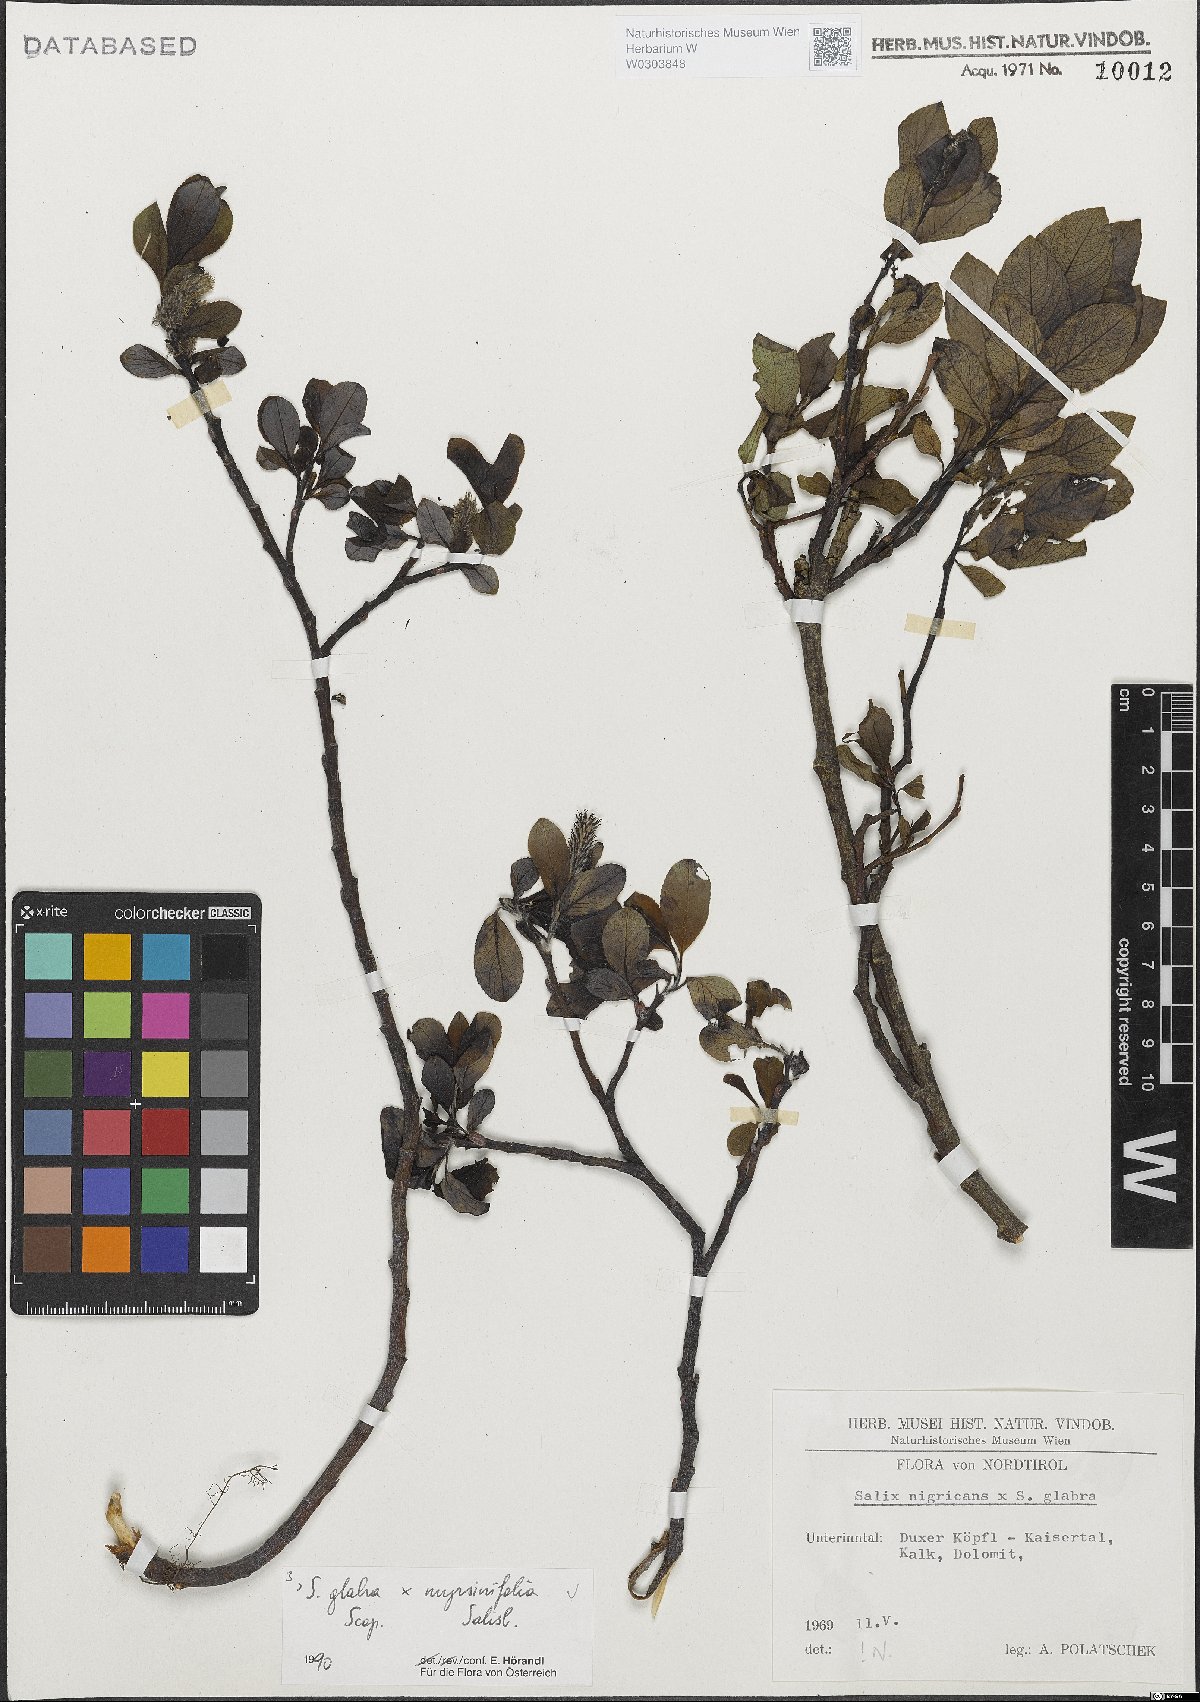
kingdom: Plantae
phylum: Tracheophyta
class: Magnoliopsida
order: Malpighiales
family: Salicaceae
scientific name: Salicaceae
